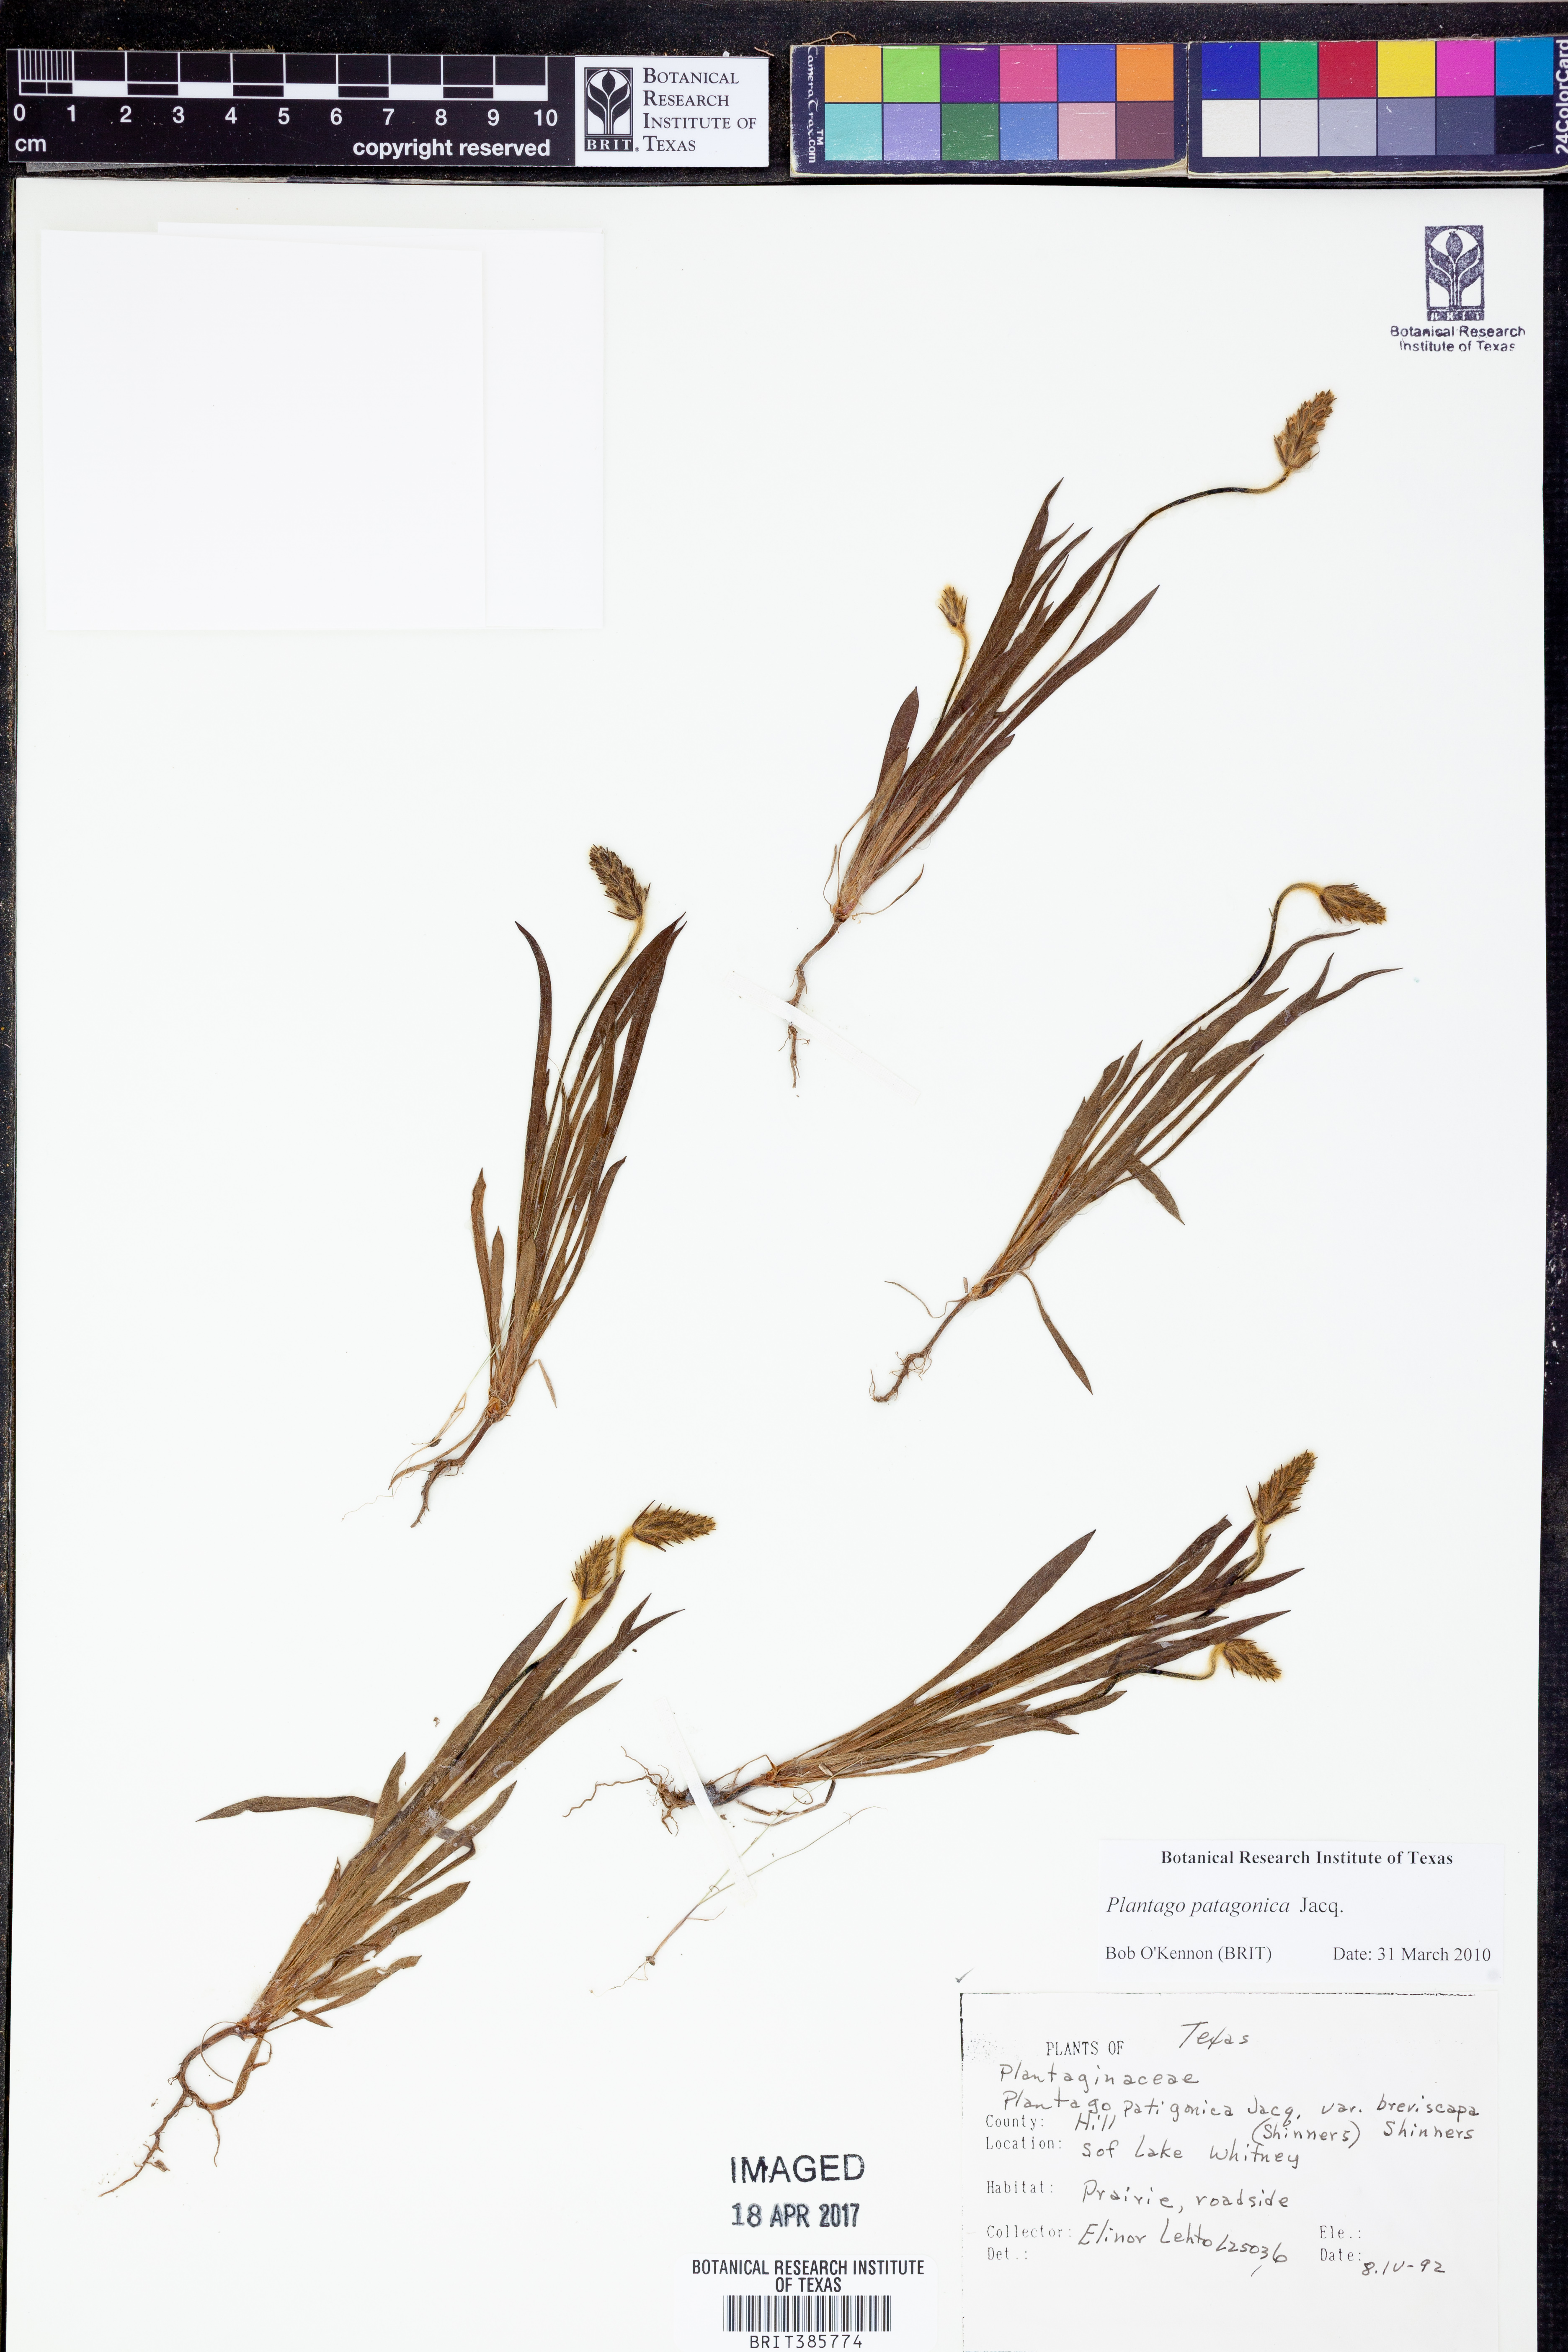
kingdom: Plantae
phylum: Tracheophyta
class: Magnoliopsida
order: Lamiales
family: Plantaginaceae
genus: Plantago
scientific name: Plantago patagonica
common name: Patagonia indian-wheat
